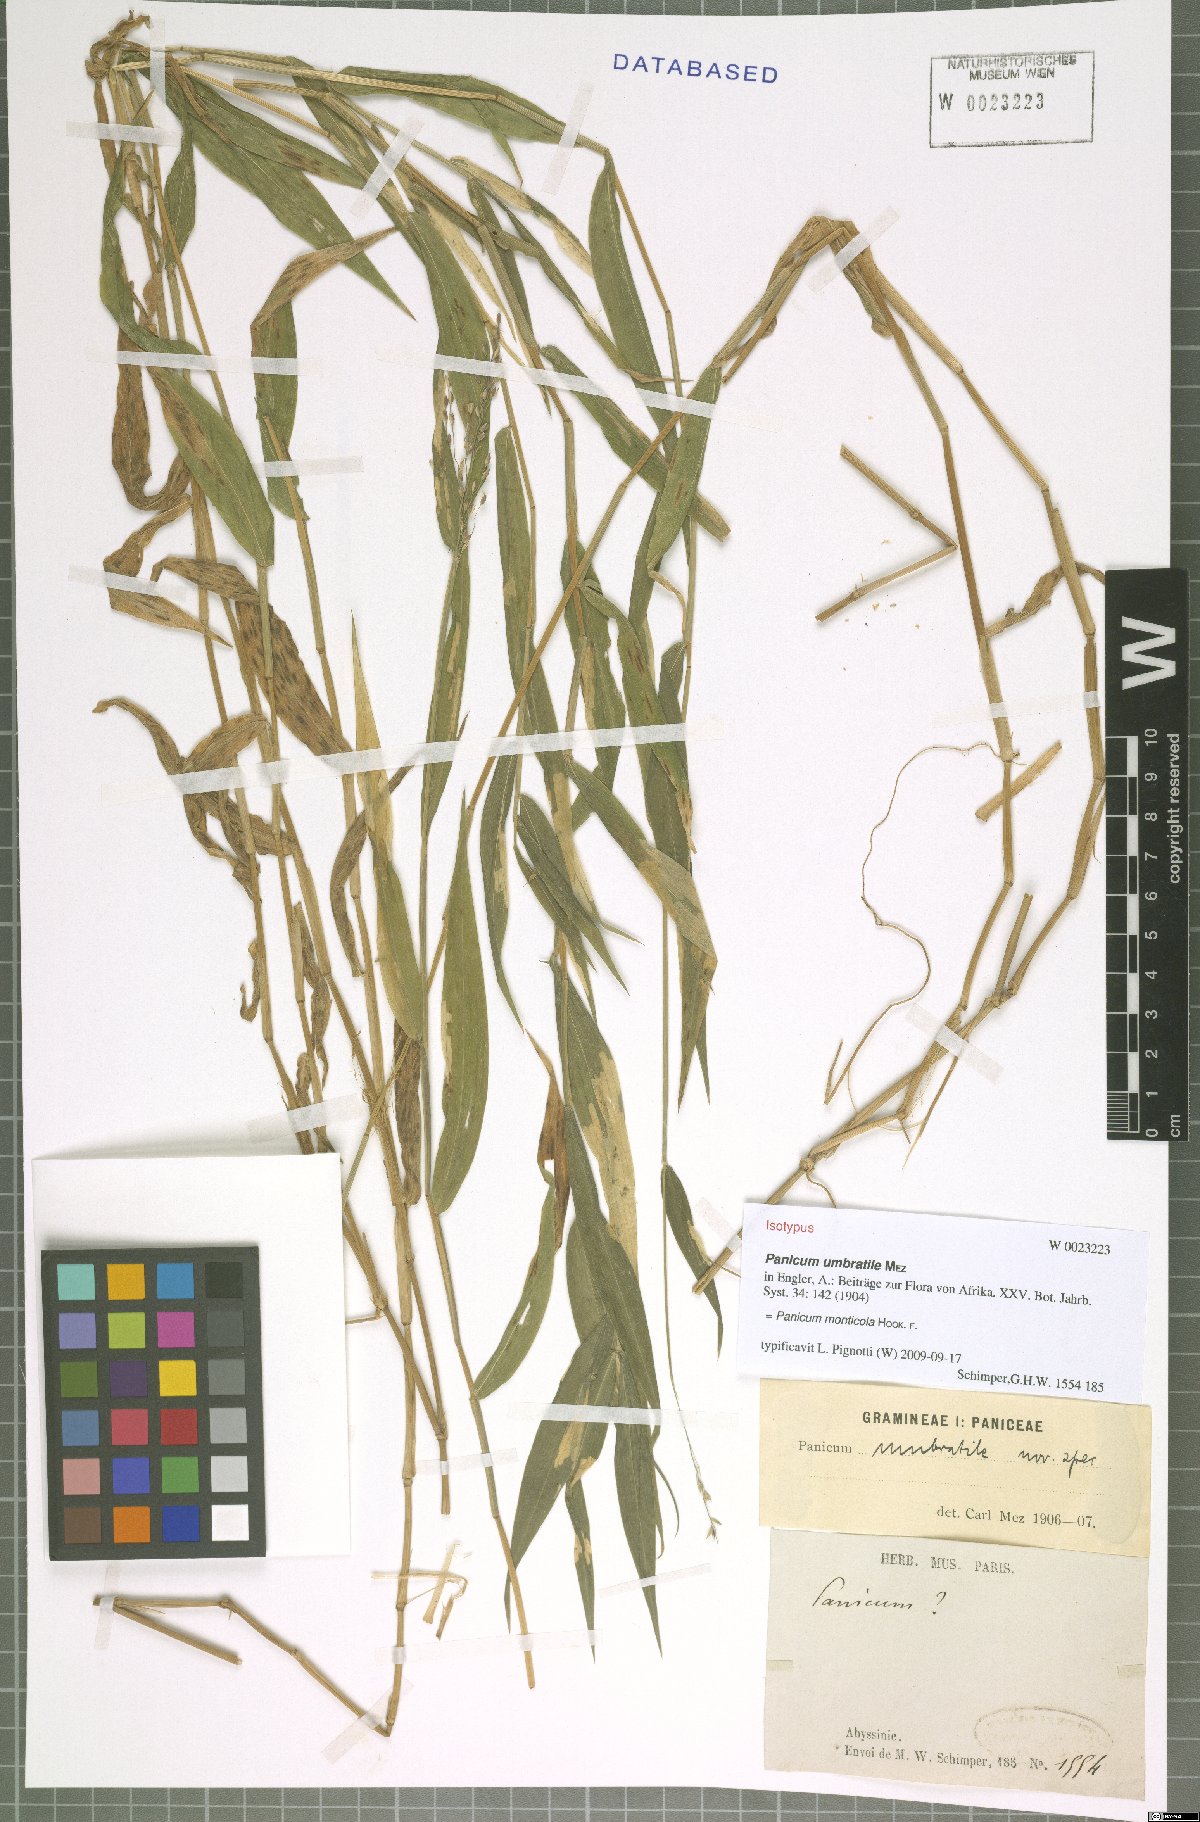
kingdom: Plantae
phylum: Tracheophyta
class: Liliopsida
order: Poales
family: Poaceae
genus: Panicum
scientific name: Panicum monticola
